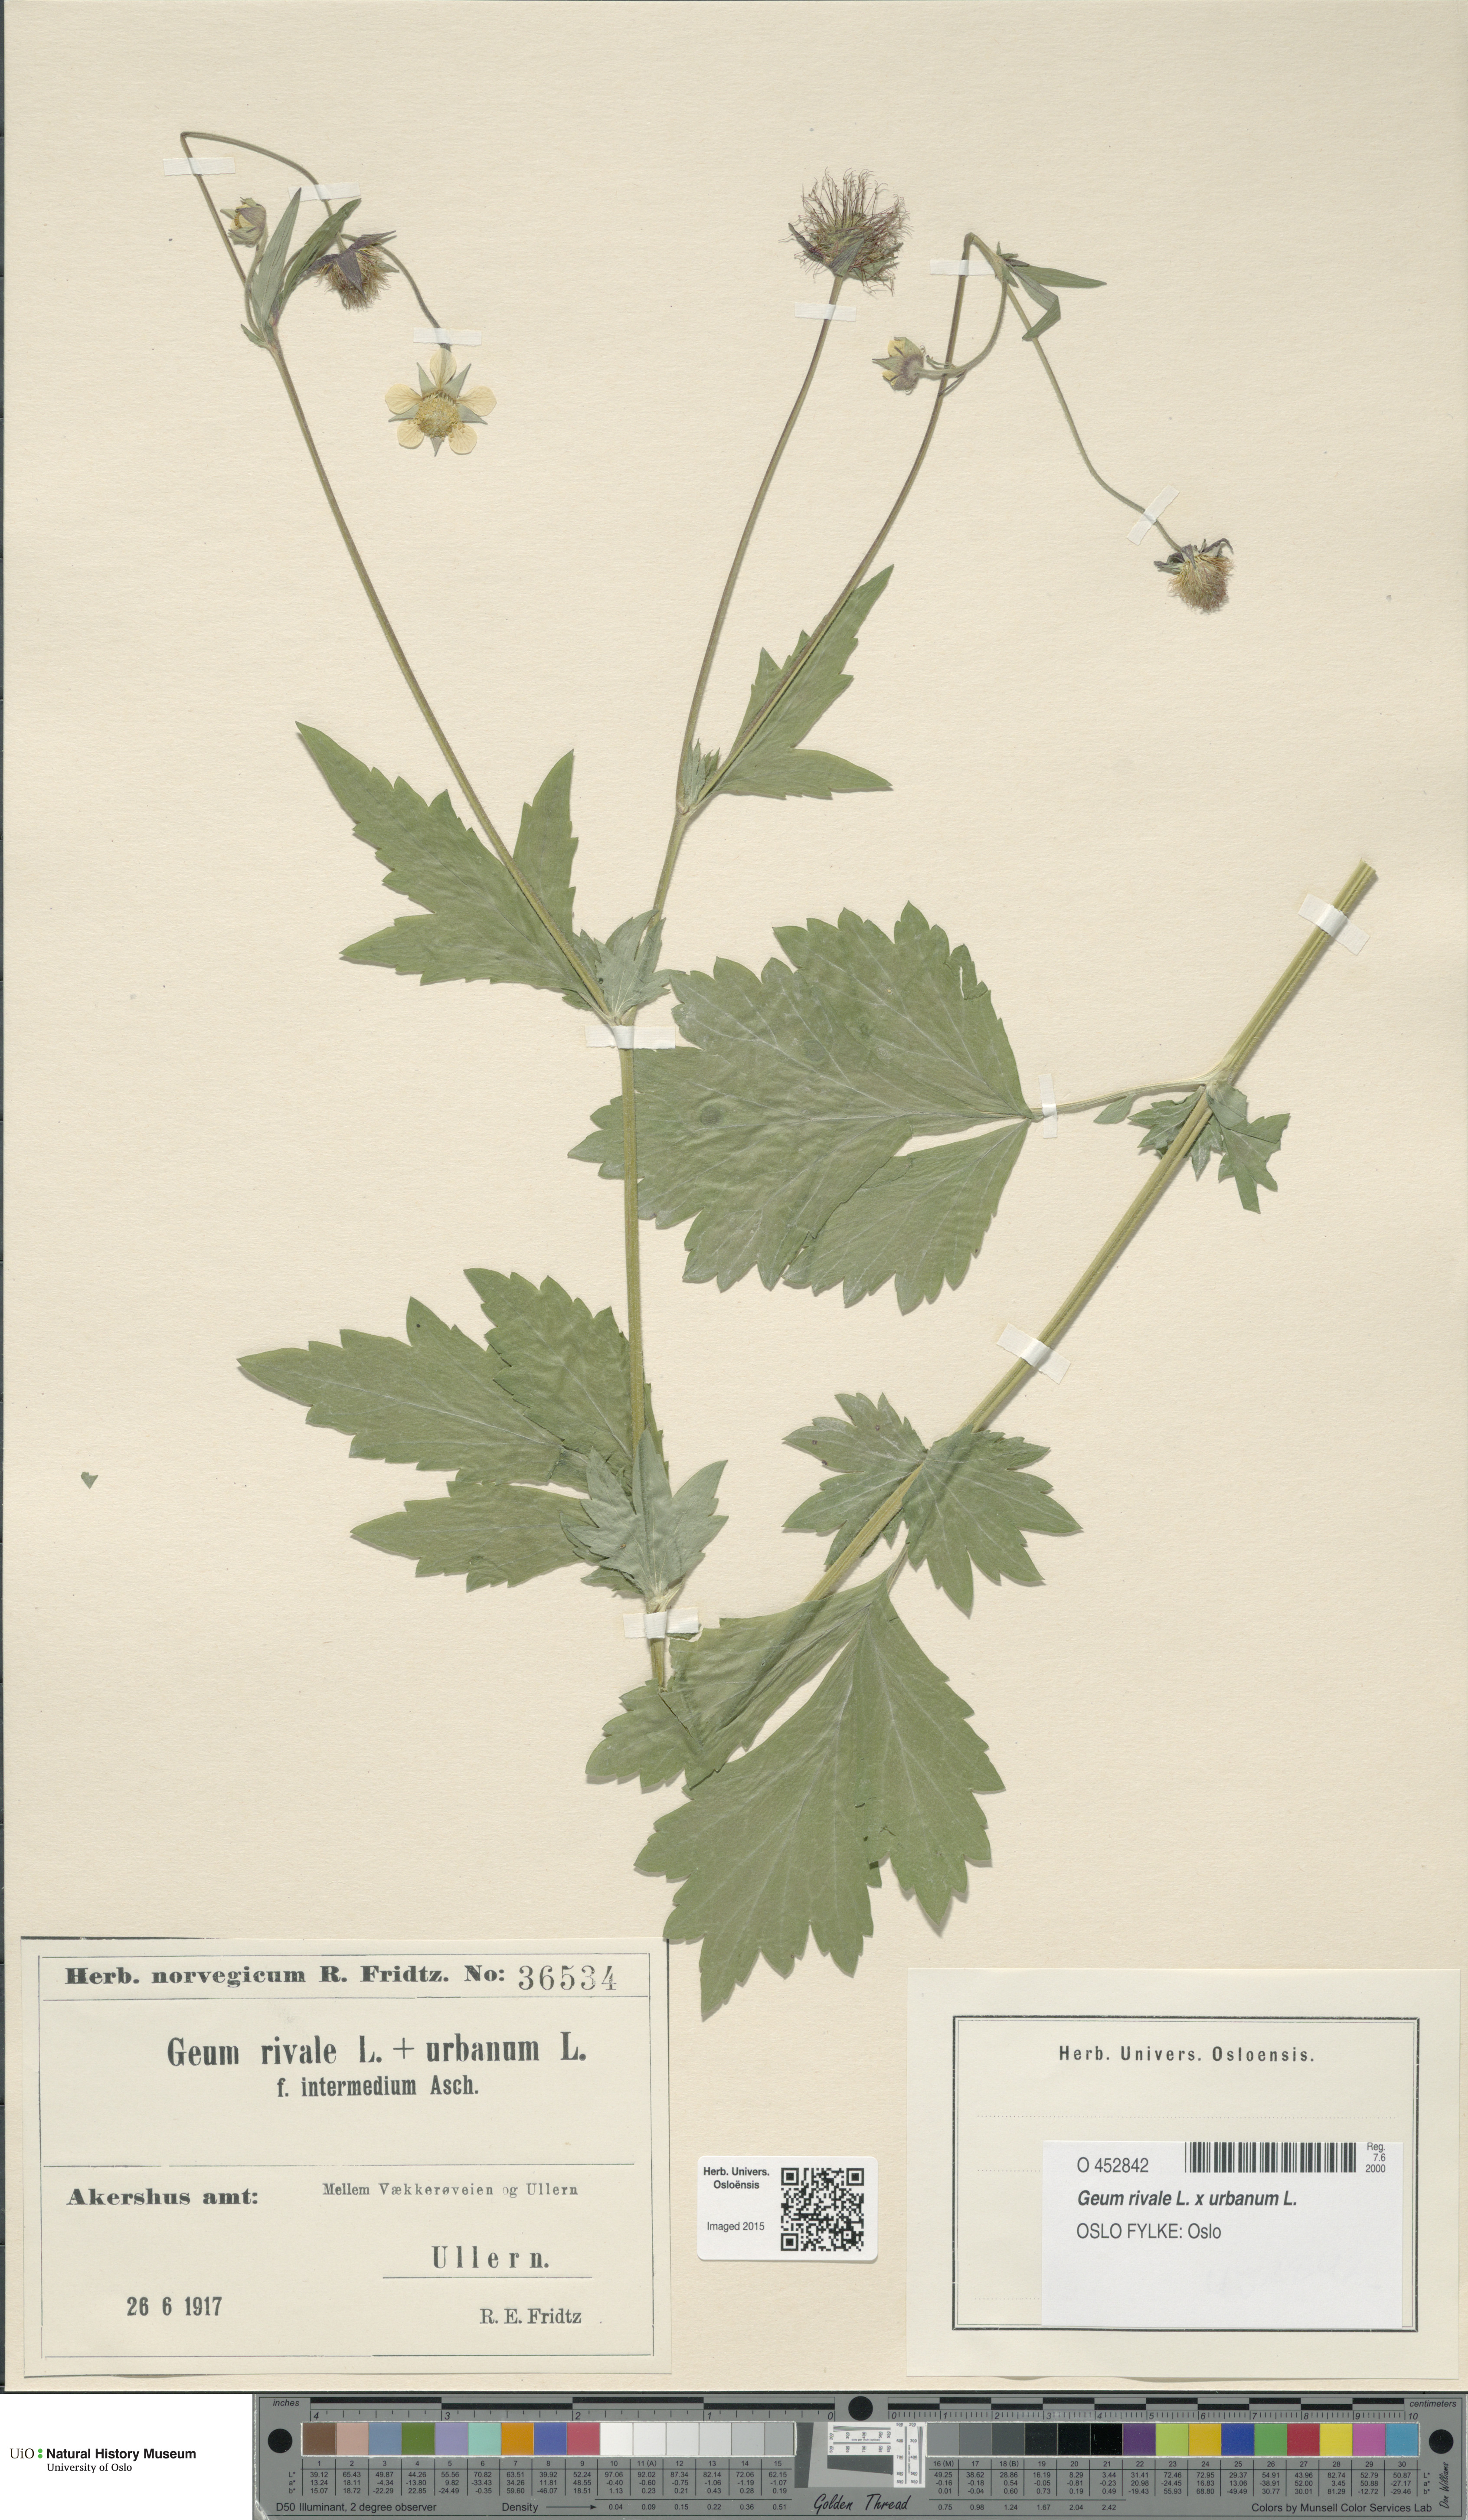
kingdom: Plantae
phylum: Tracheophyta
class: Magnoliopsida
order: Rosales
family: Rosaceae
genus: Geum
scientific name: Geum
